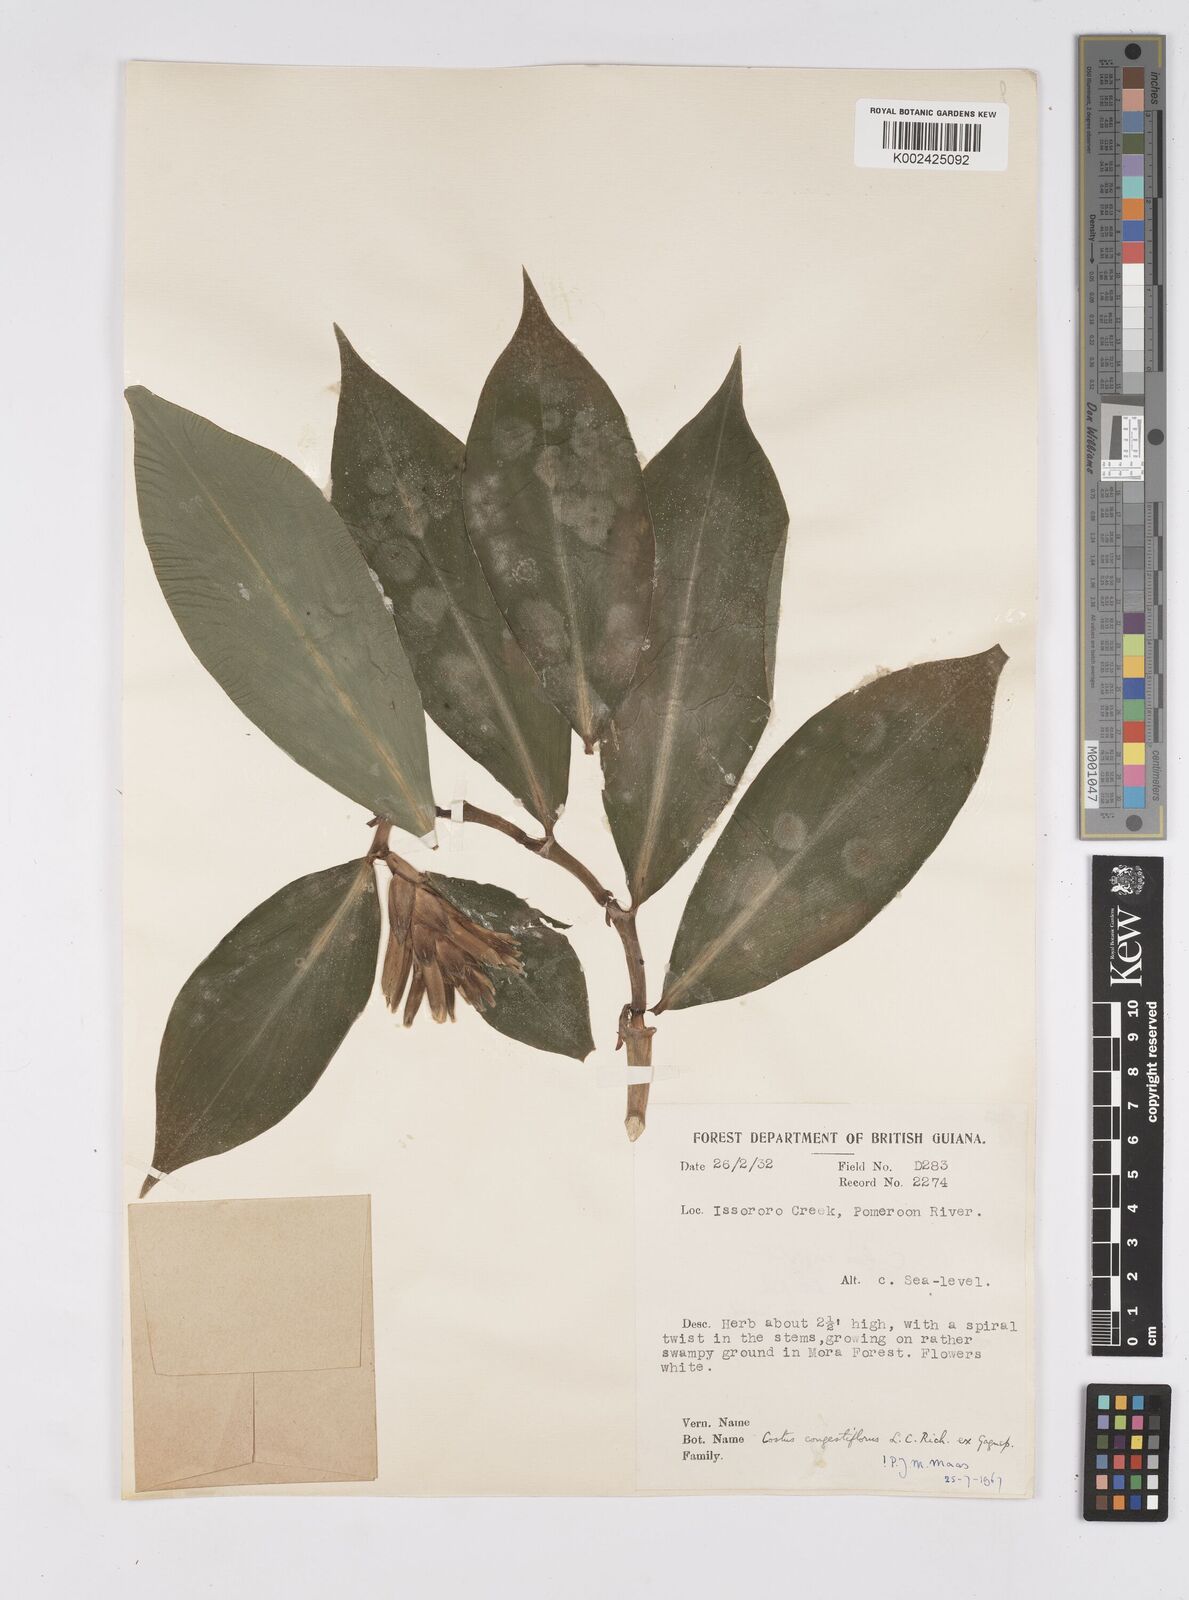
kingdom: Plantae
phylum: Tracheophyta
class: Liliopsida
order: Zingiberales
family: Costaceae
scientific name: Costaceae
